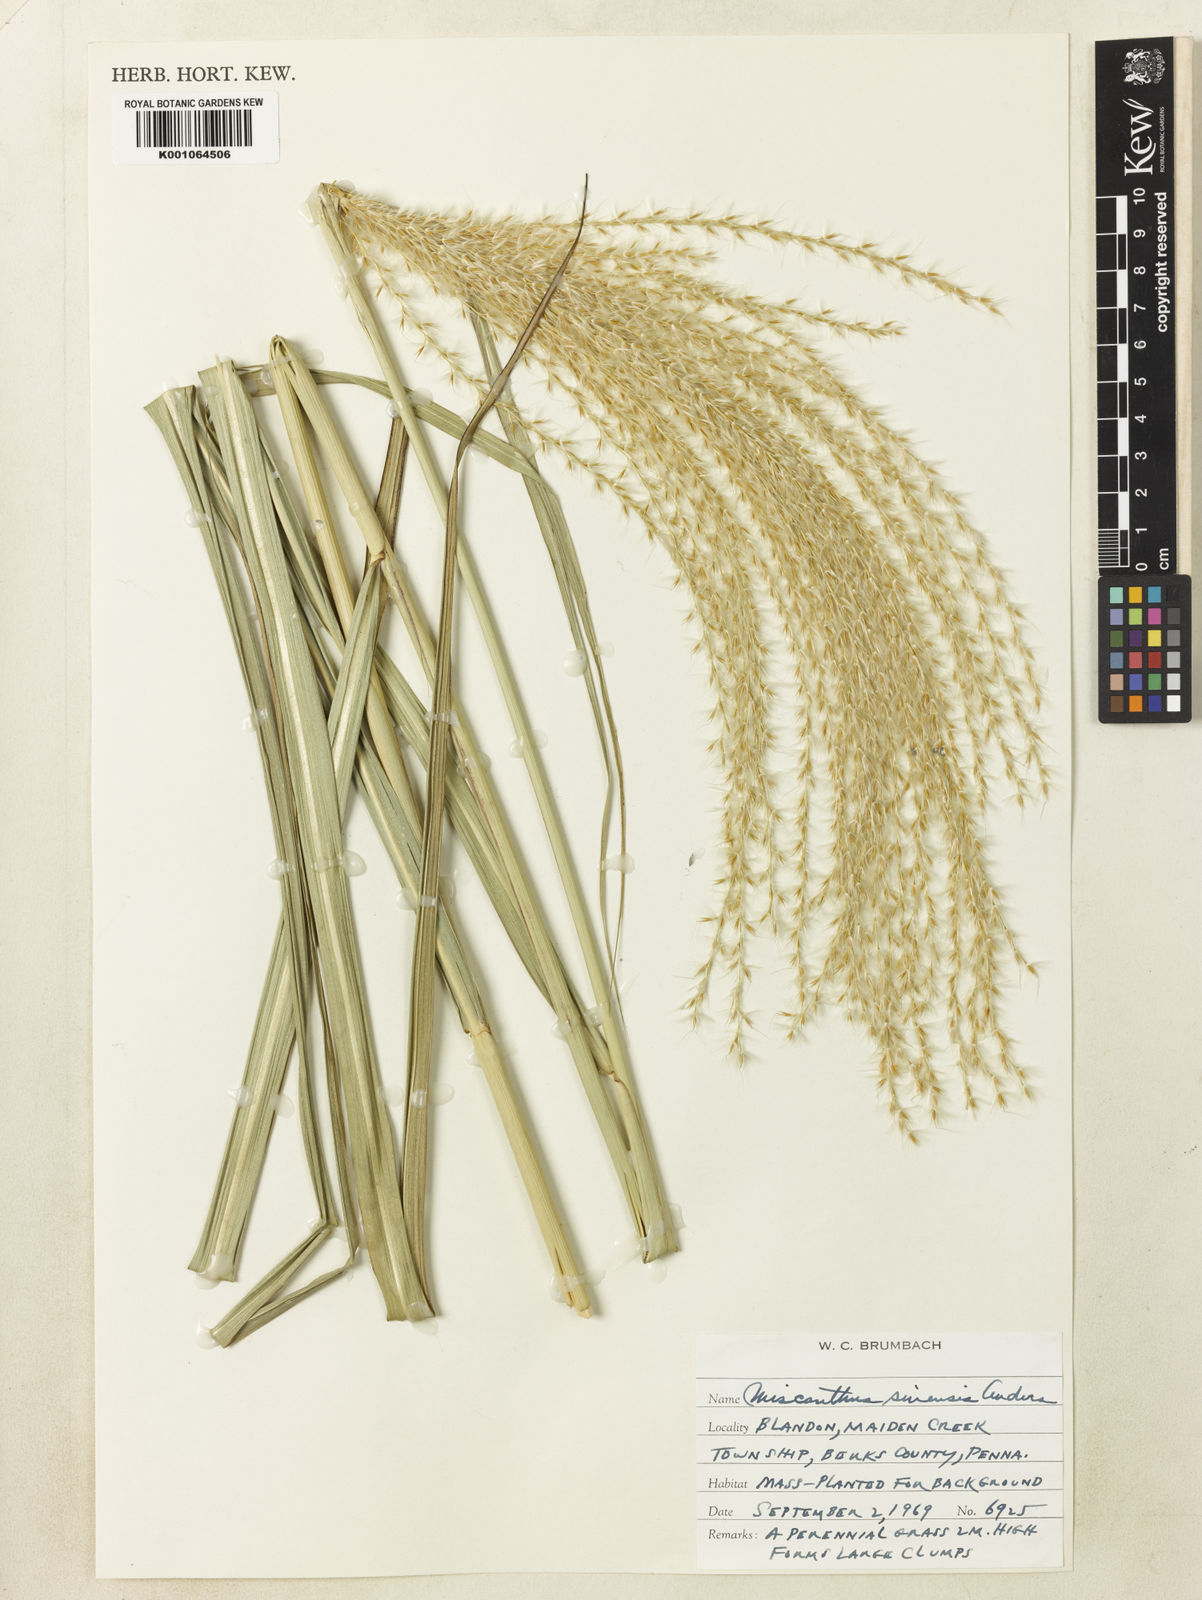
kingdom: Plantae
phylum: Tracheophyta
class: Liliopsida
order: Poales
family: Poaceae
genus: Miscanthus
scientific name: Miscanthus sinensis
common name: Chinese silvergrass
